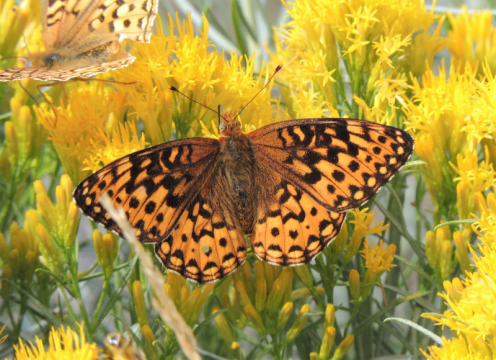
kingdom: Animalia
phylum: Arthropoda
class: Insecta
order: Lepidoptera
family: Nymphalidae
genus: Speyeria
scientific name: Speyeria zerene
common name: Zerene Fritillary
